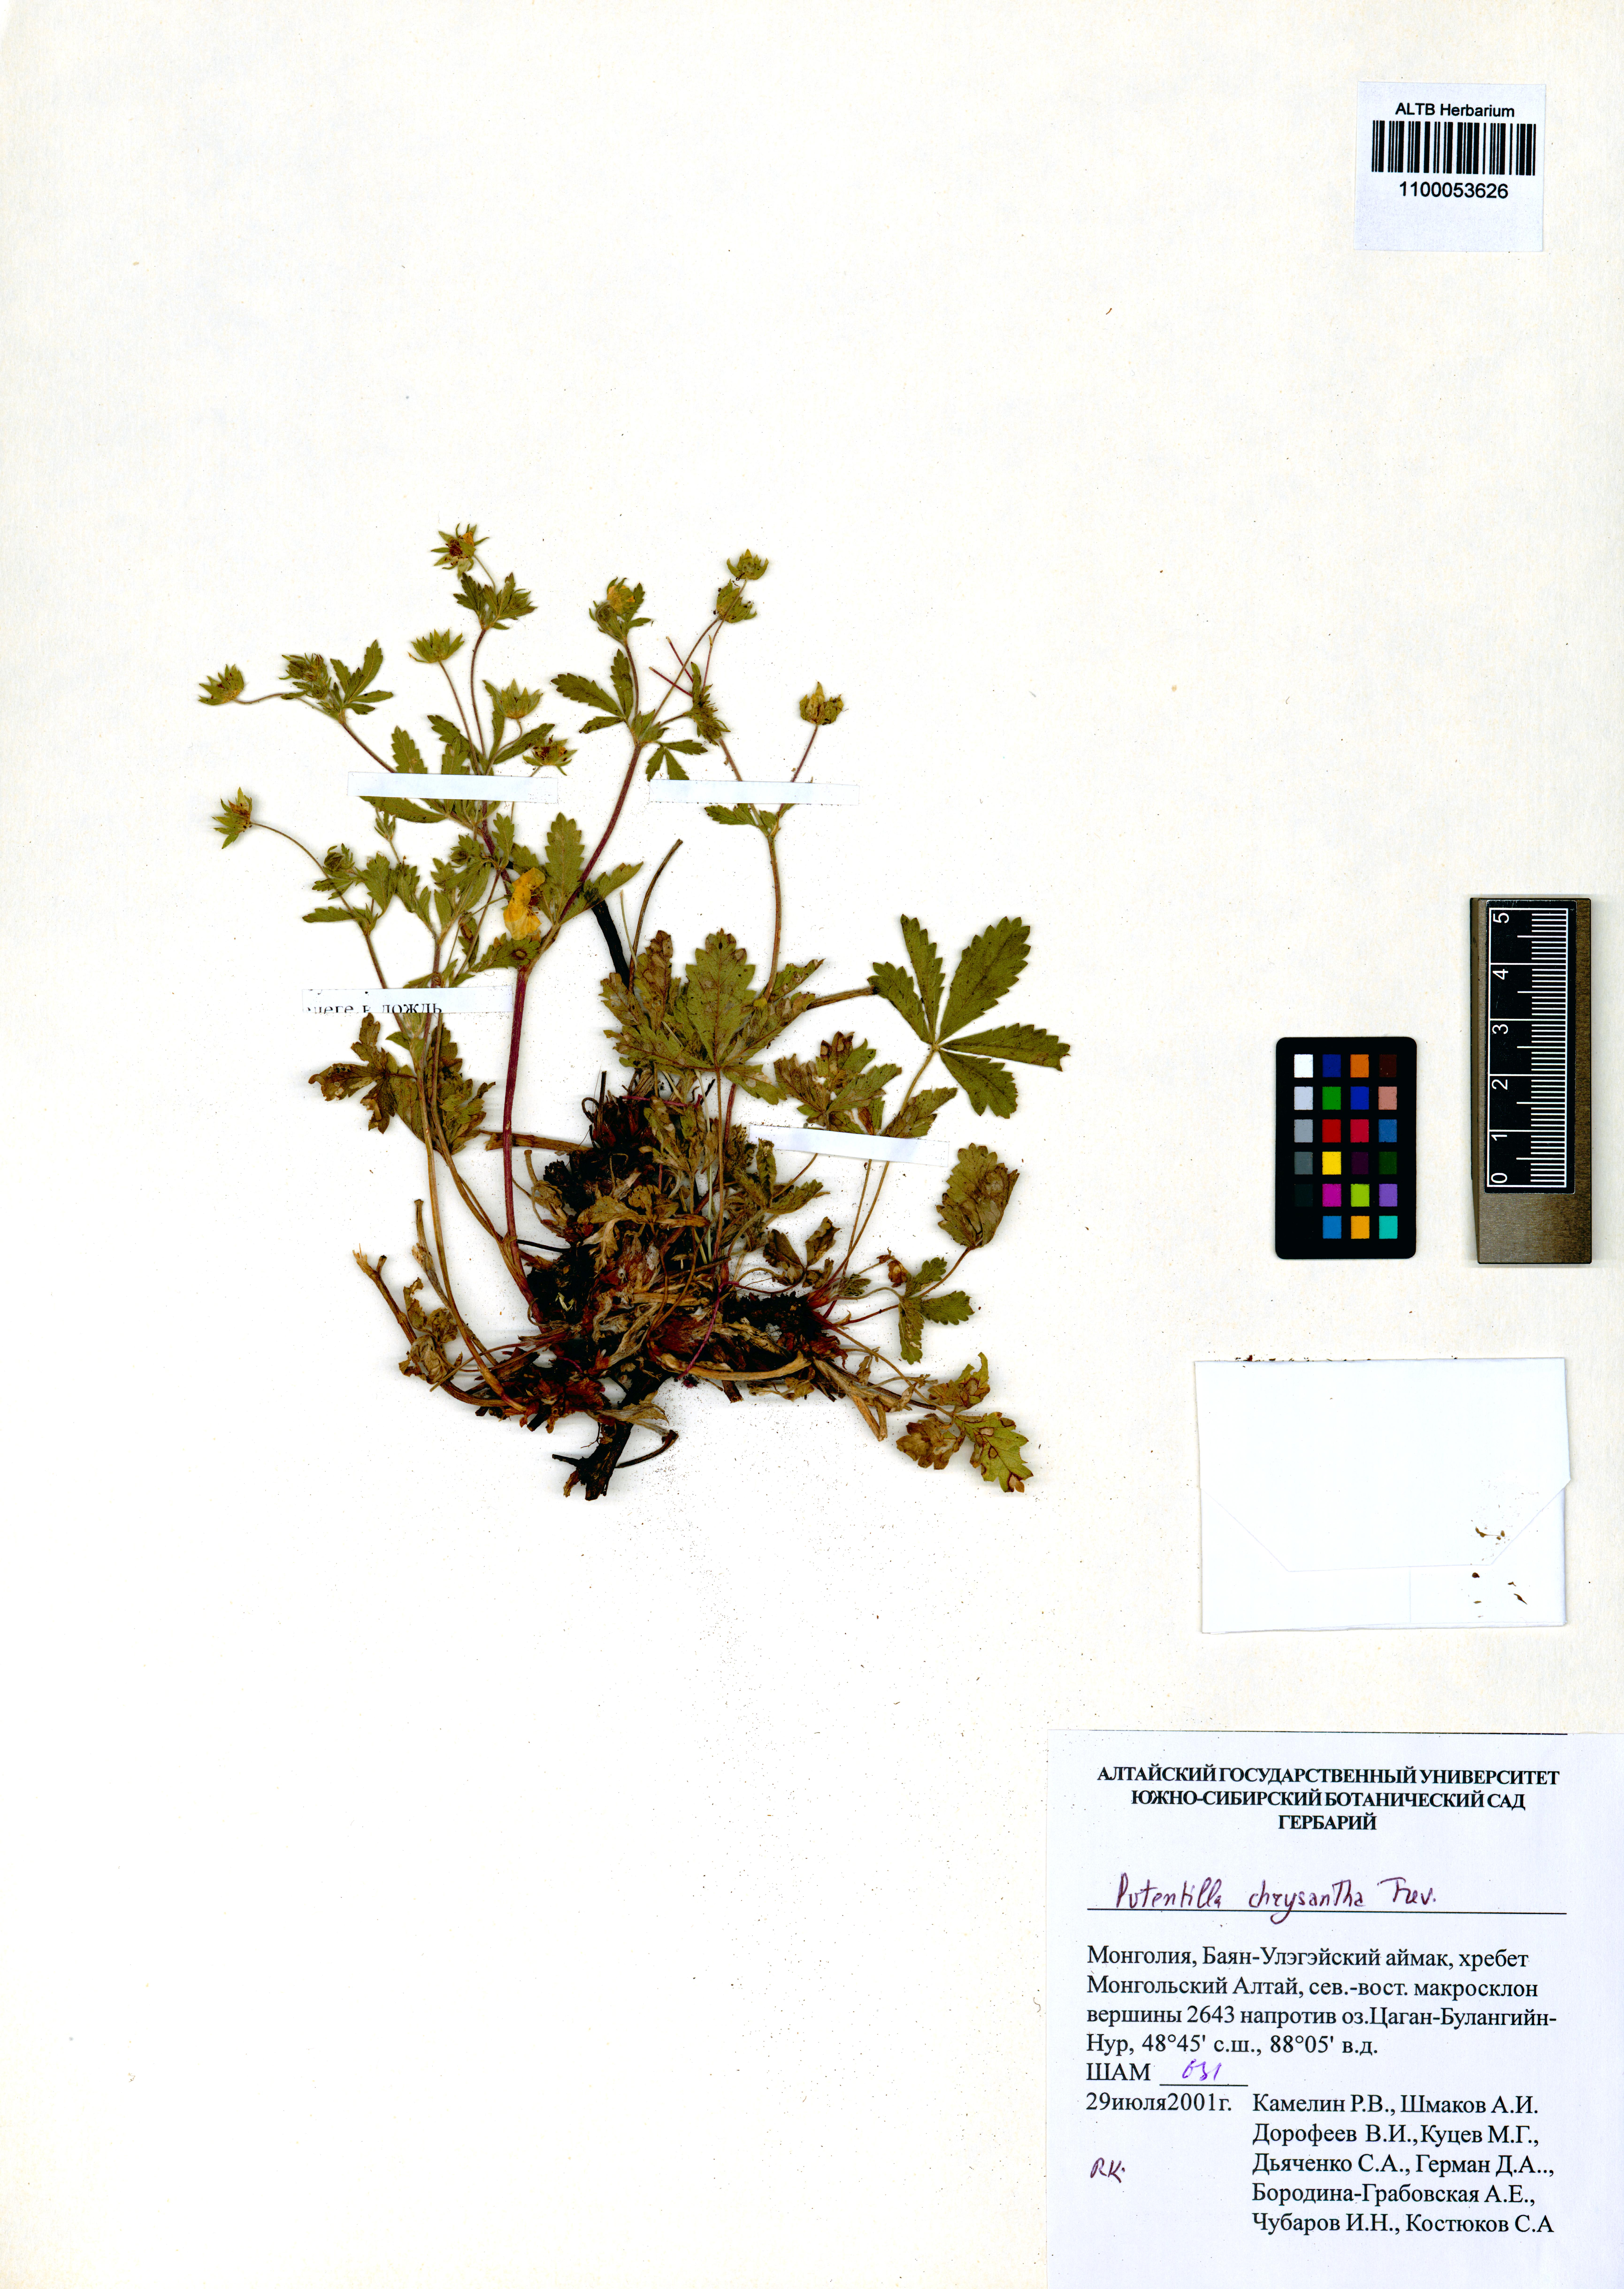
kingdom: Plantae
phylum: Tracheophyta
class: Magnoliopsida
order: Rosales
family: Rosaceae
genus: Potentilla
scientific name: Potentilla chrysantha
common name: Thuringian cinquefoil
